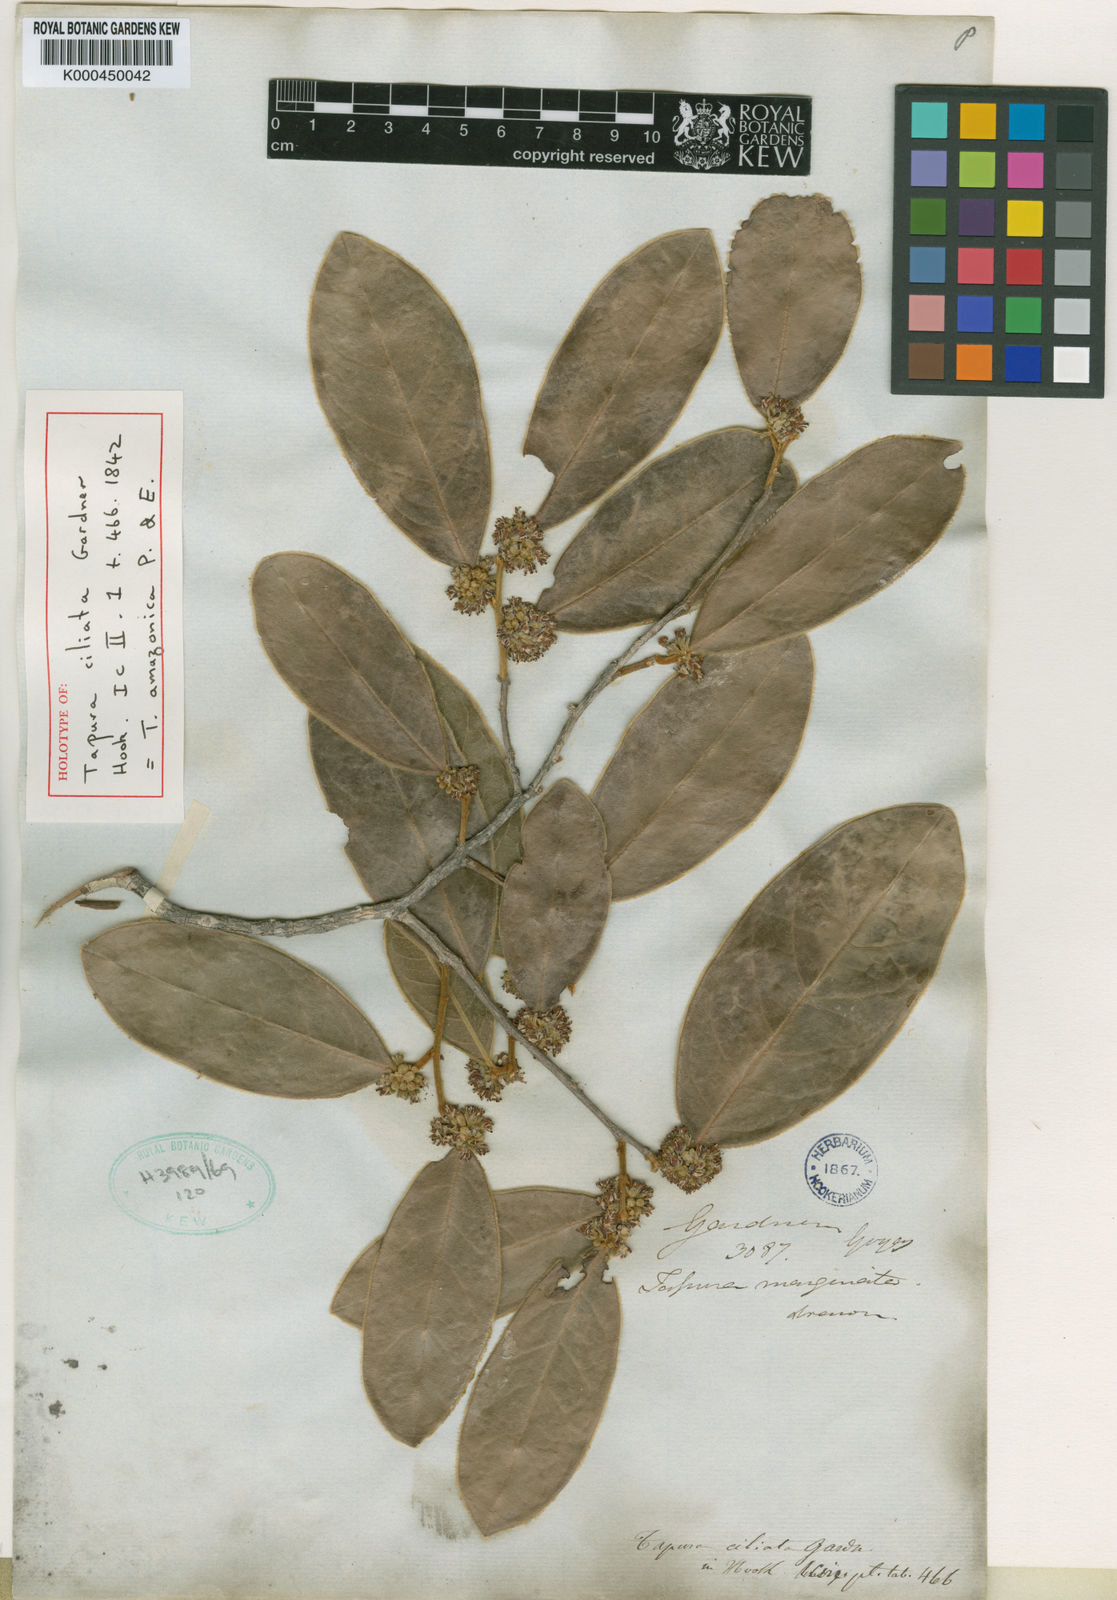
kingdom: Plantae
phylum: Tracheophyta
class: Magnoliopsida
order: Malpighiales
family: Dichapetalaceae
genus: Tapura
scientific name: Tapura amazonica
